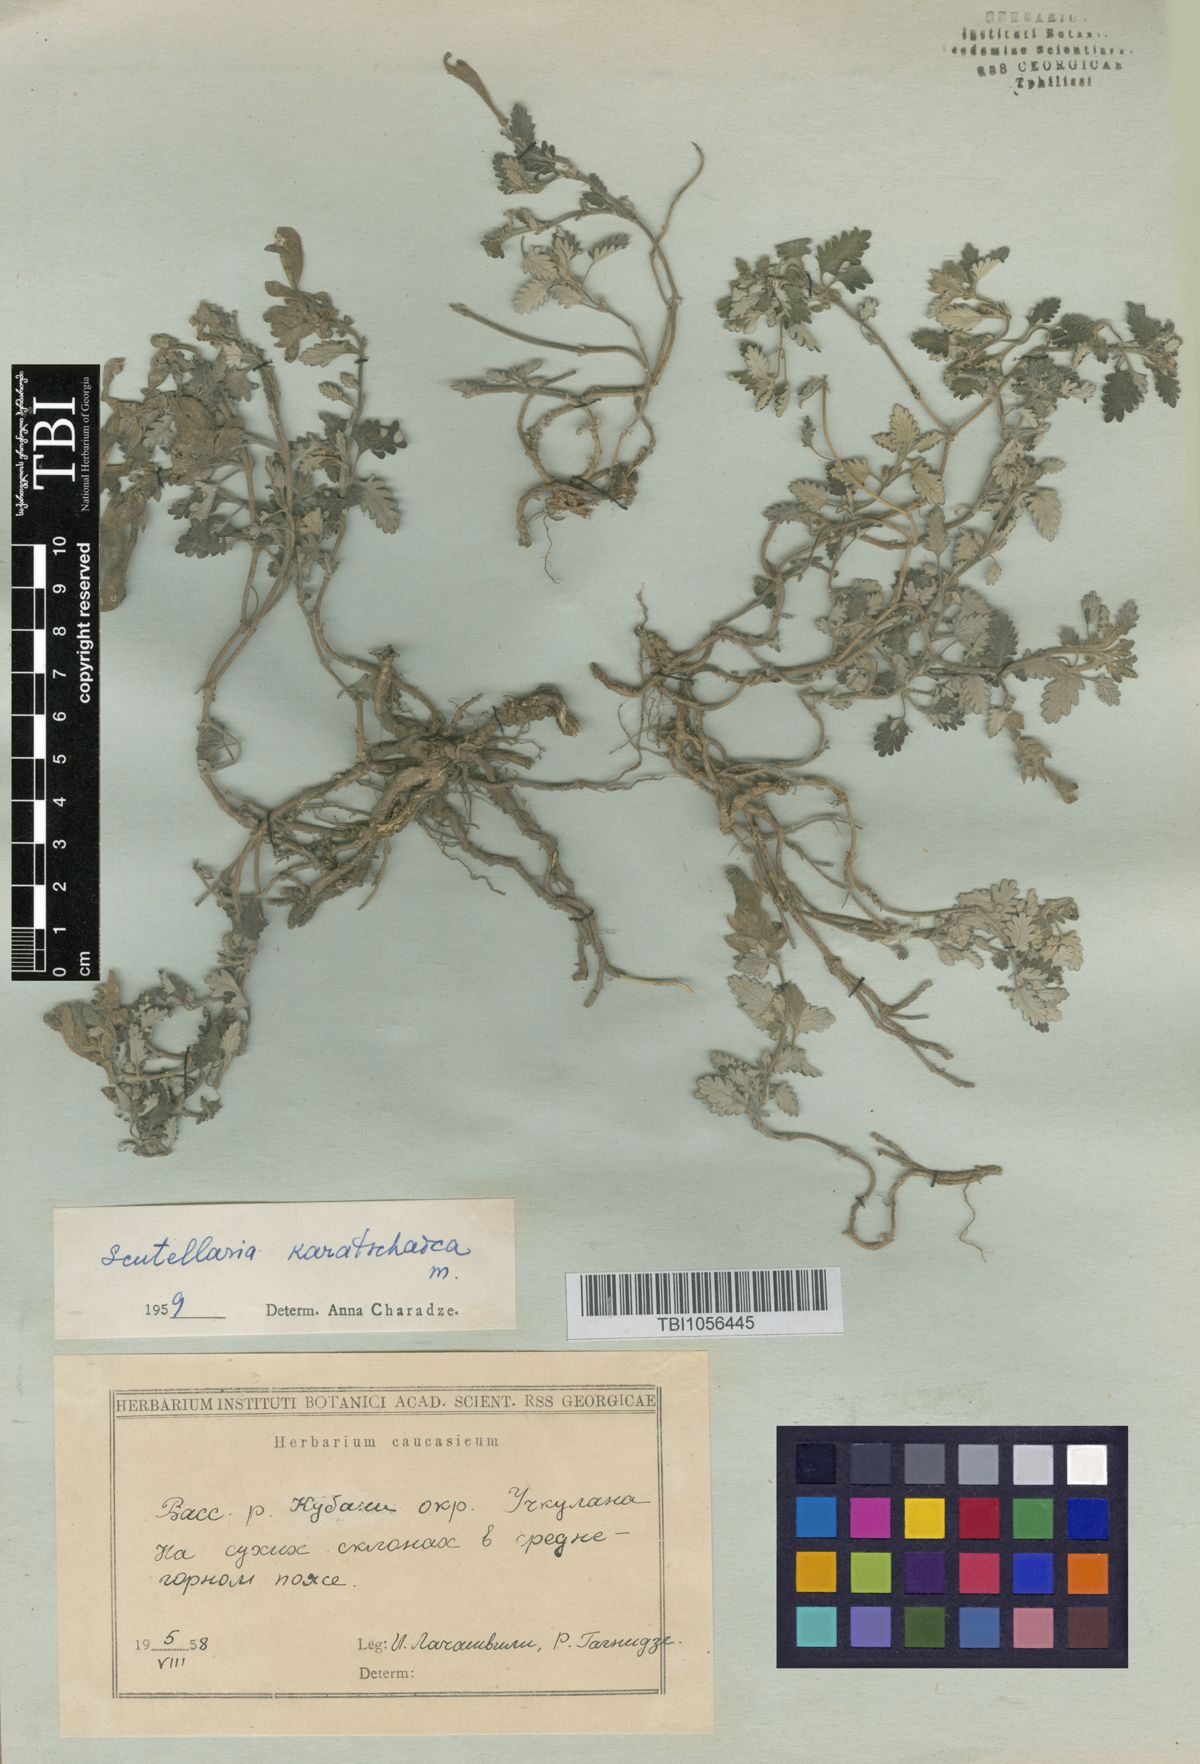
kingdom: Plantae
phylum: Tracheophyta
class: Magnoliopsida
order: Lamiales
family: Lamiaceae
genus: Scutellaria
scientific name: Scutellaria orientalis
